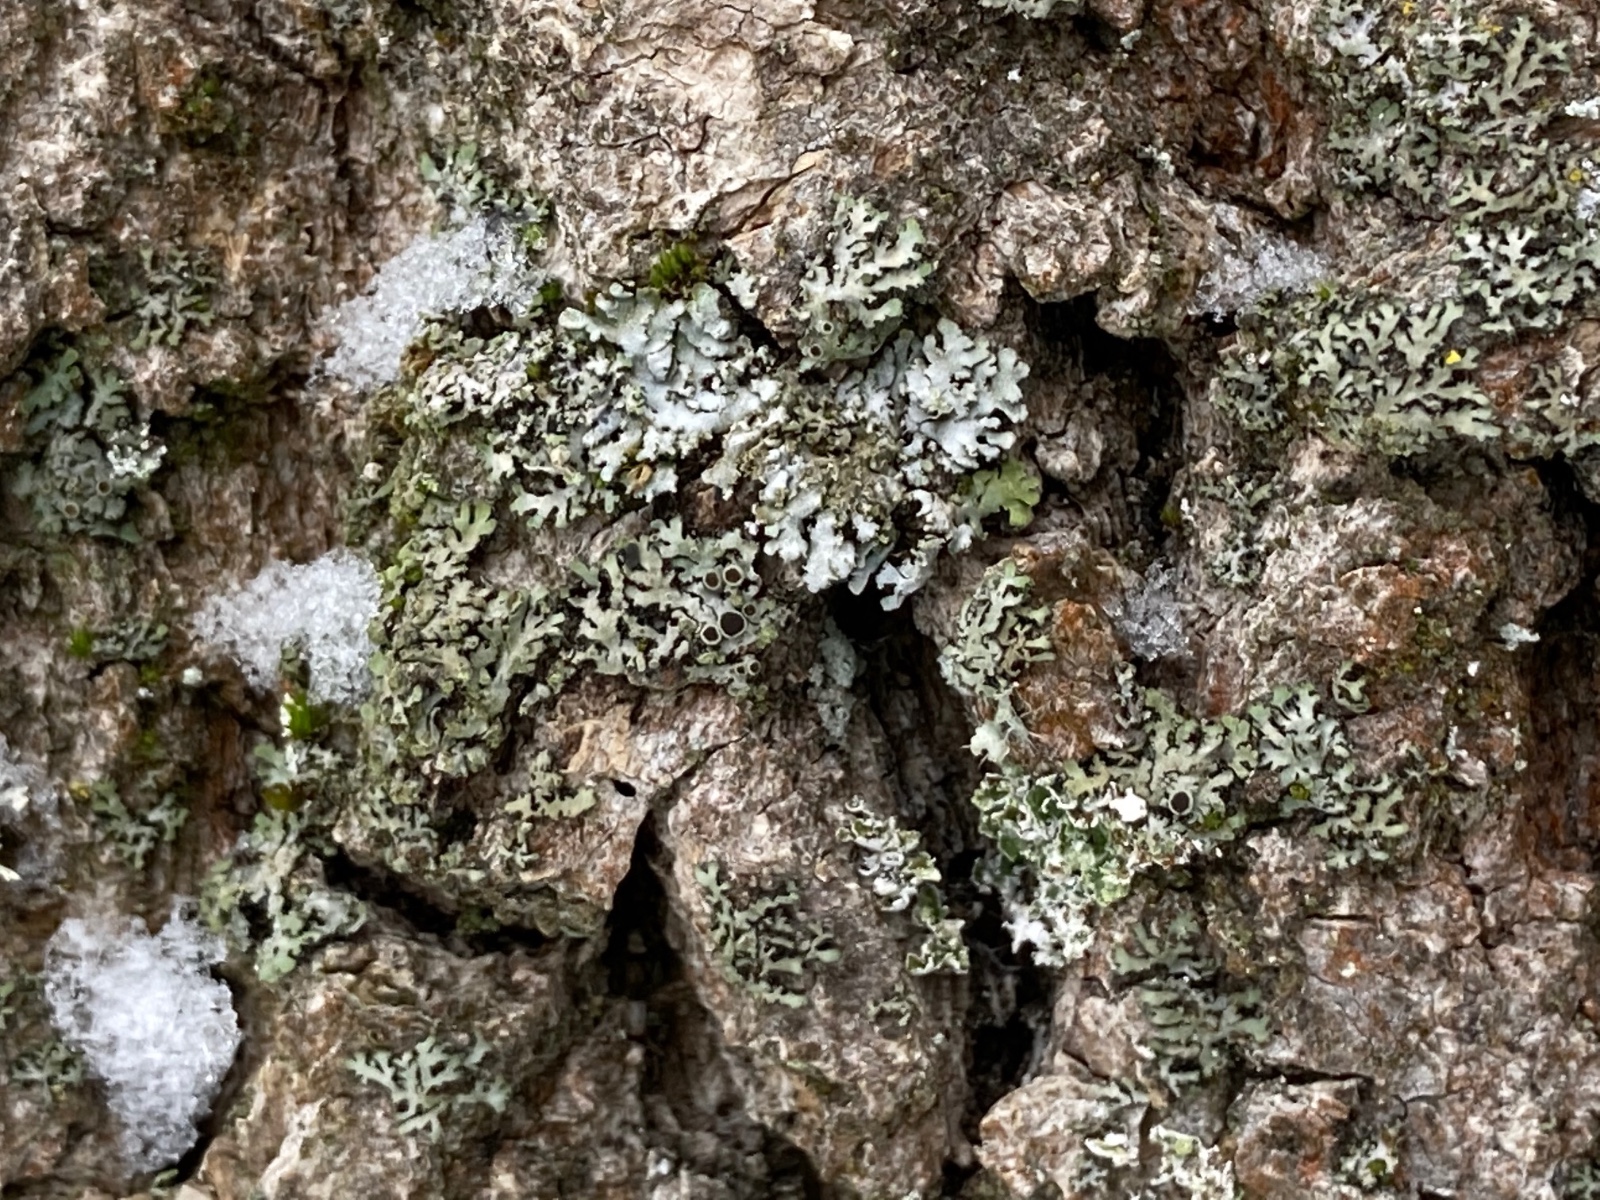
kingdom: Fungi
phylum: Ascomycota
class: Lecanoromycetes
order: Caliciales
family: Physciaceae
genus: Phaeophyscia
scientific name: Phaeophyscia orbicularis
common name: grågrøn rosetlav
